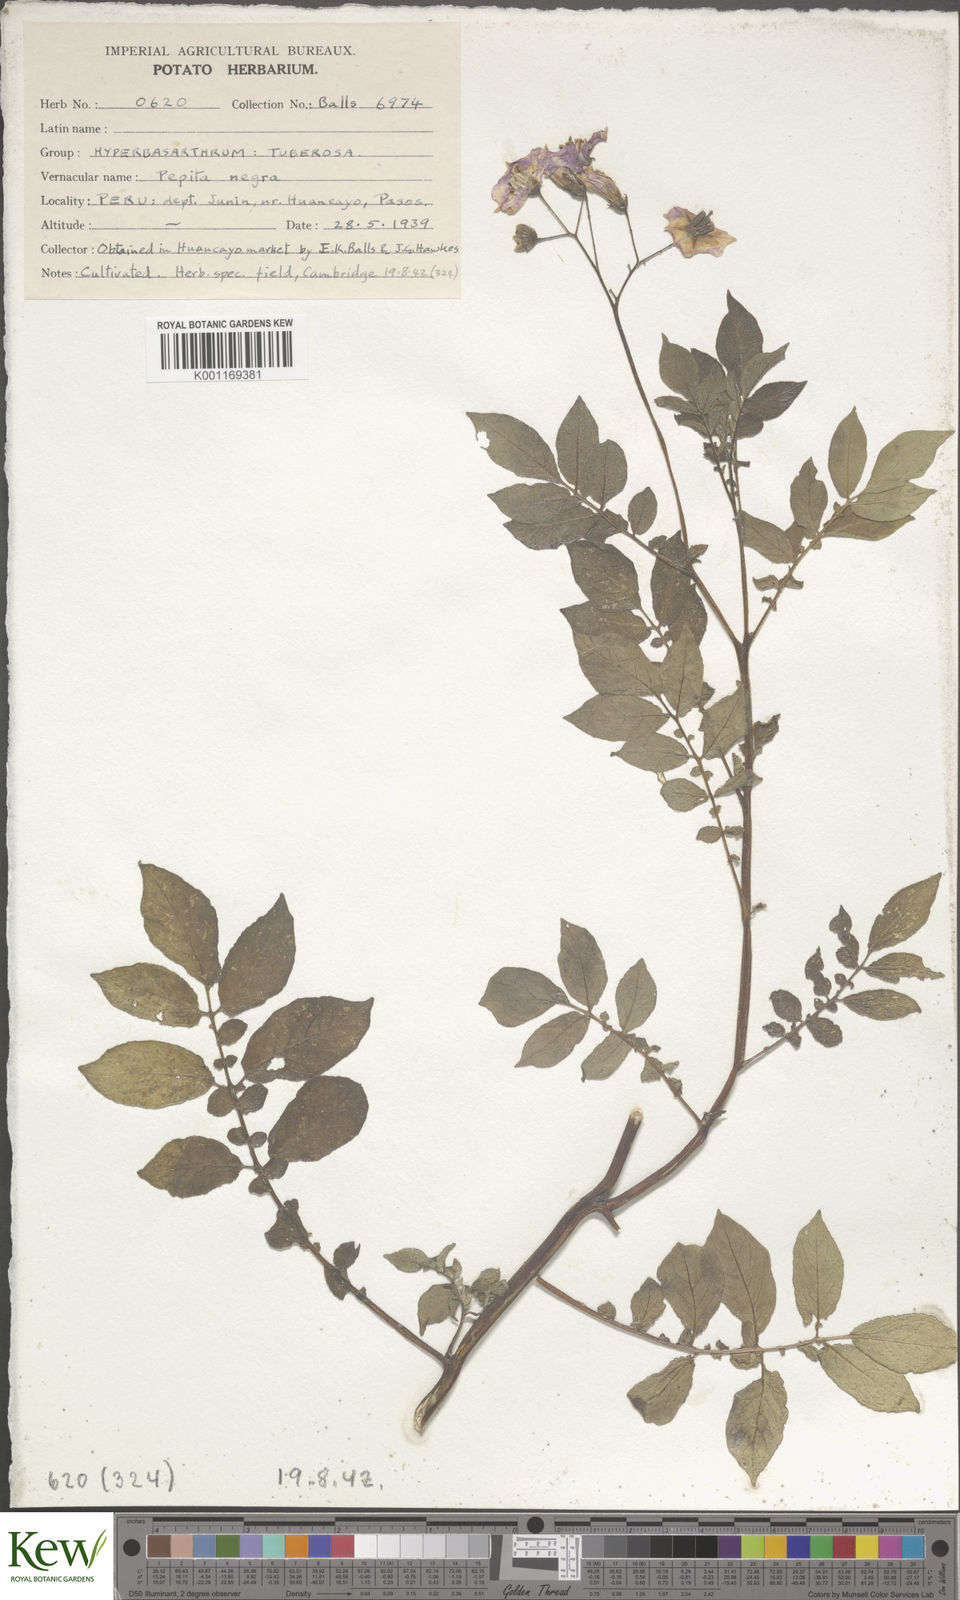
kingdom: Plantae
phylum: Tracheophyta
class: Magnoliopsida
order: Solanales
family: Solanaceae
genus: Solanum
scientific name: Solanum chaucha
